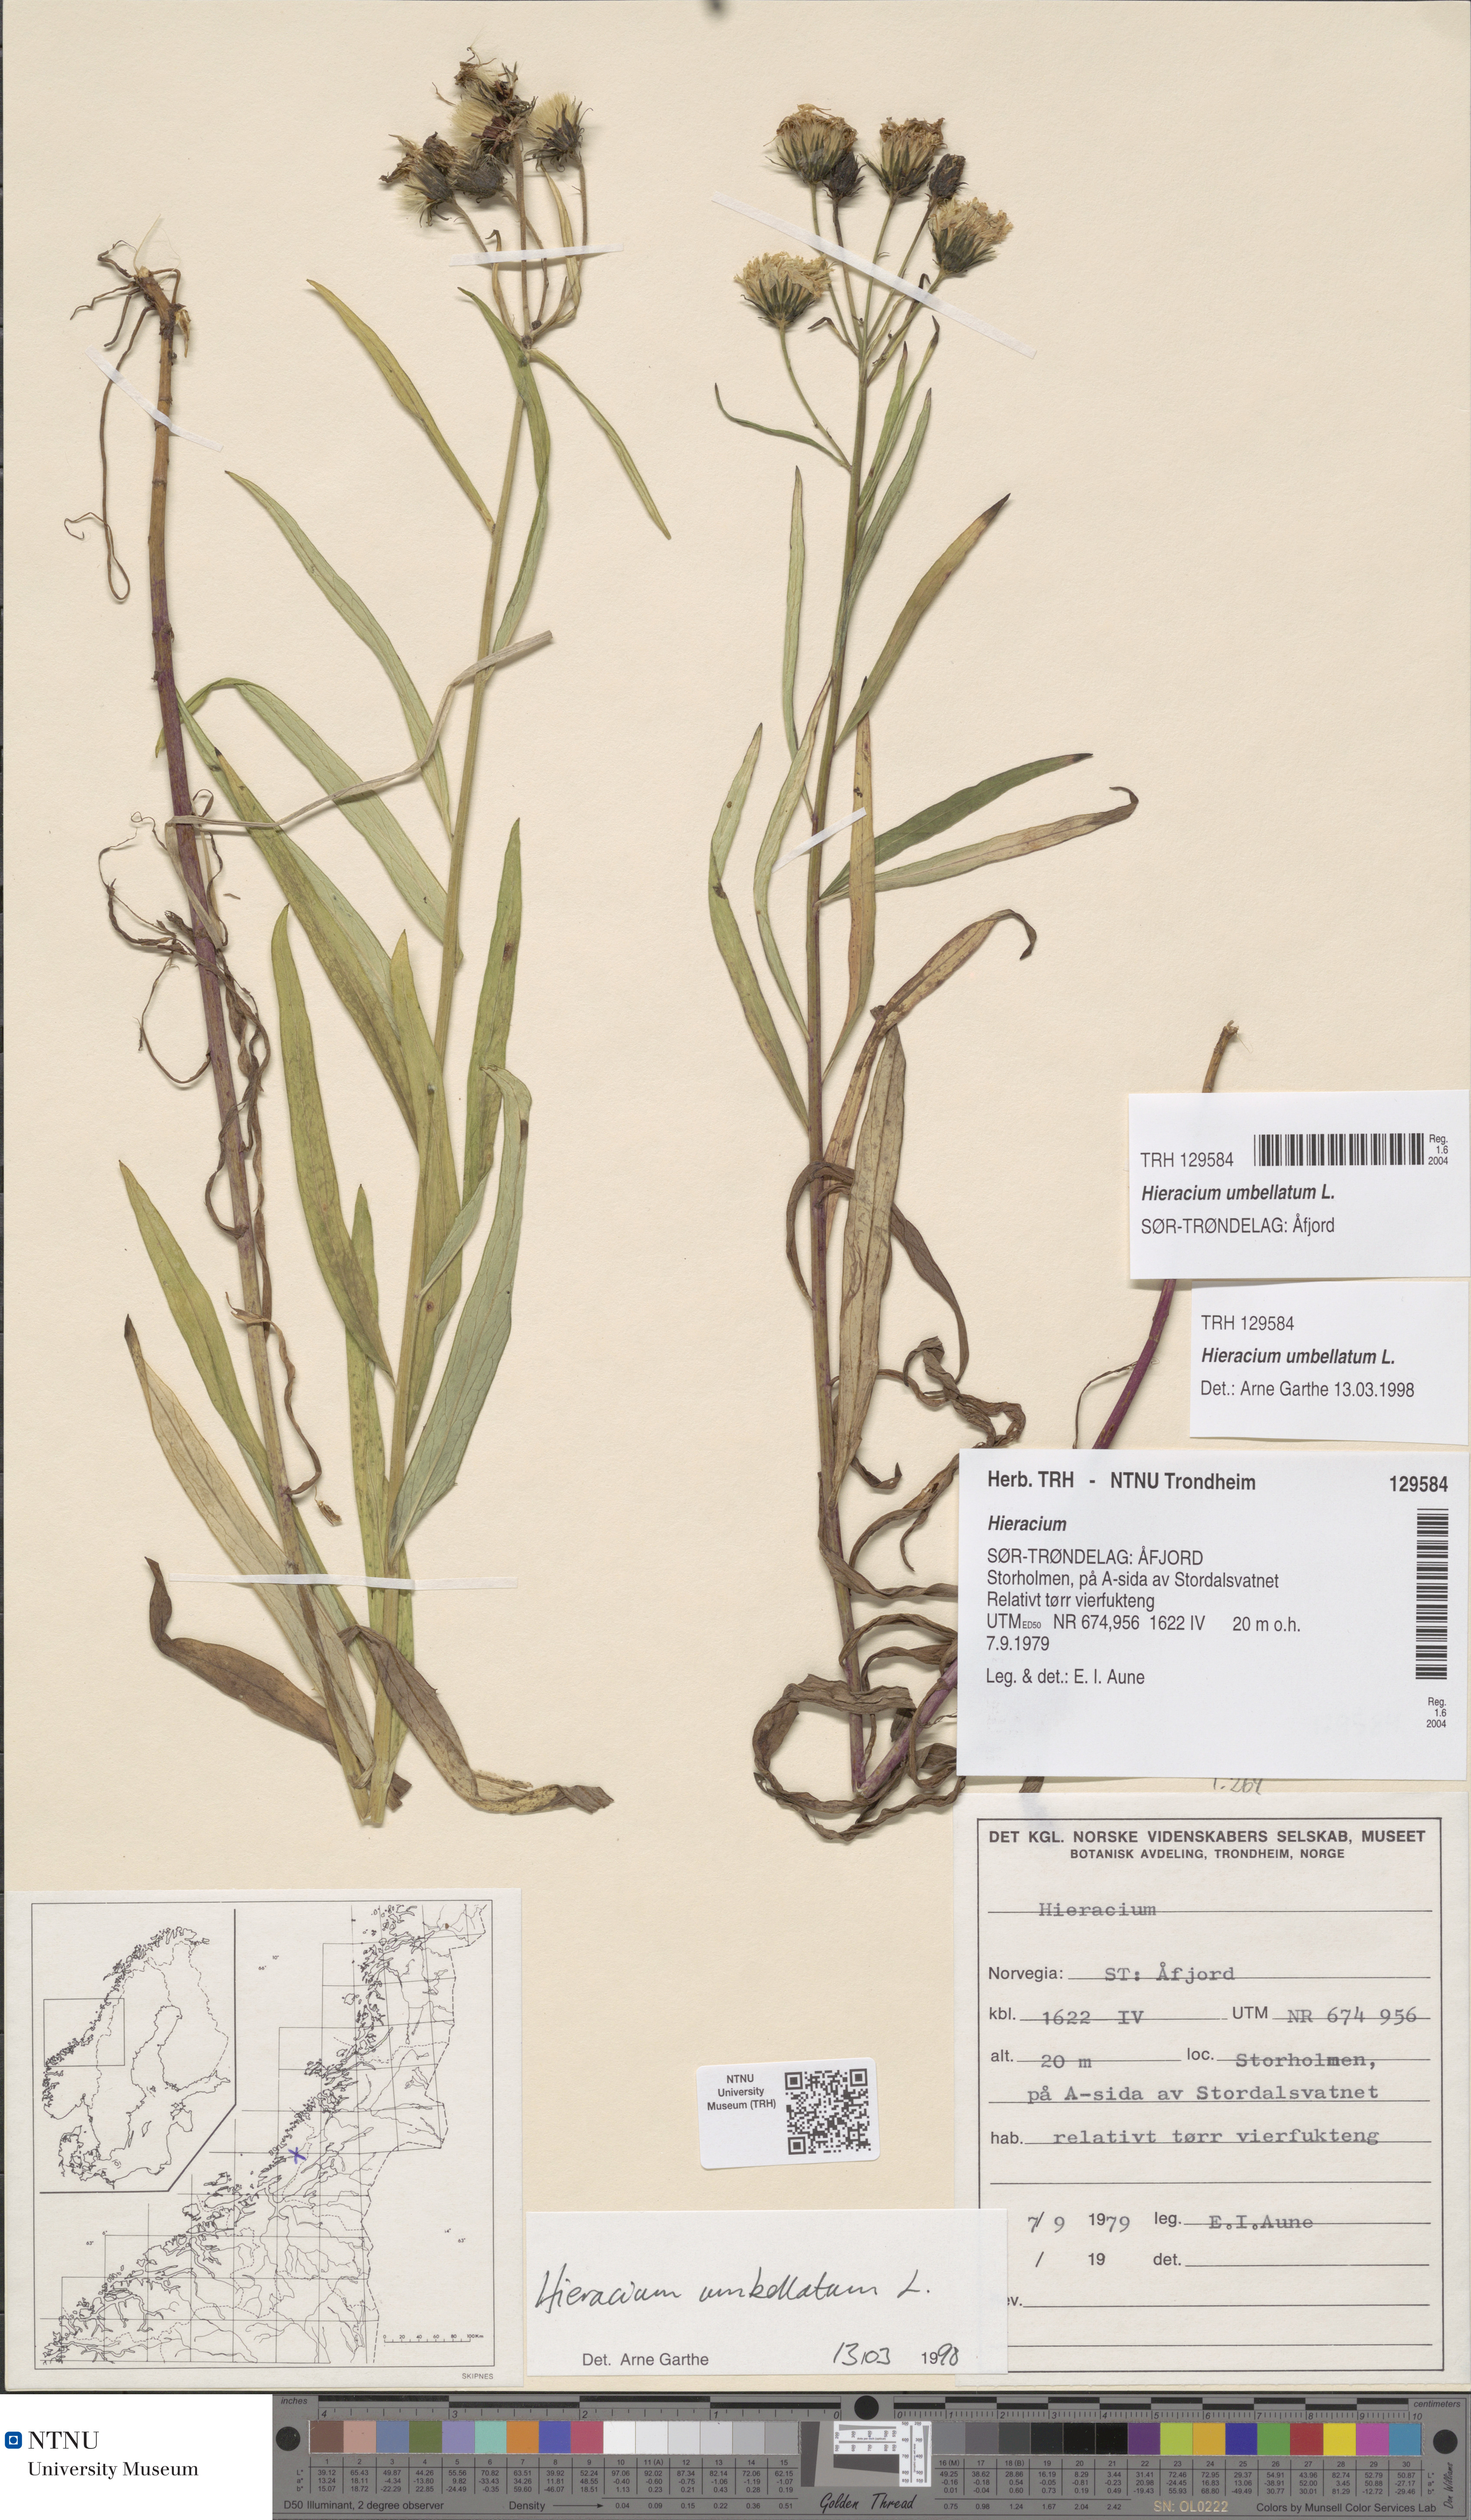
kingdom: Plantae
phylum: Tracheophyta
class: Magnoliopsida
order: Asterales
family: Asteraceae
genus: Hieracium
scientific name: Hieracium umbellatum
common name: Northern hawkweed
